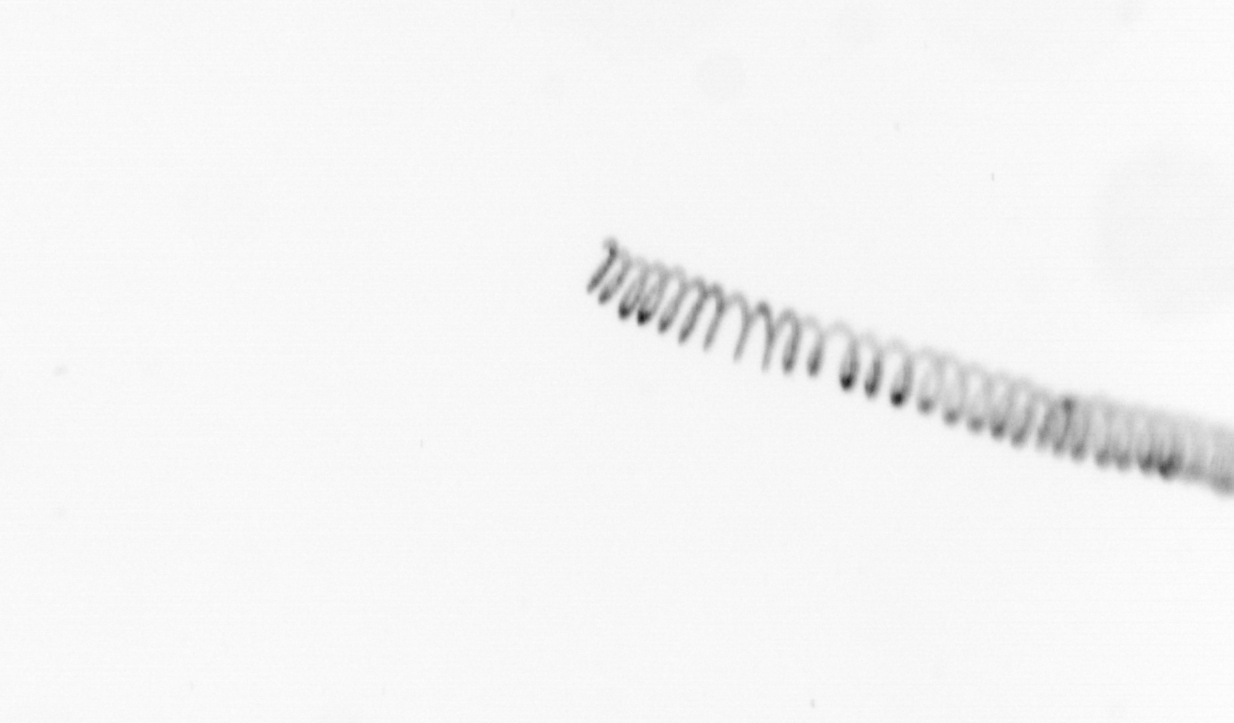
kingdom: Chromista
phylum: Ochrophyta
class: Bacillariophyceae
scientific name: Bacillariophyceae
